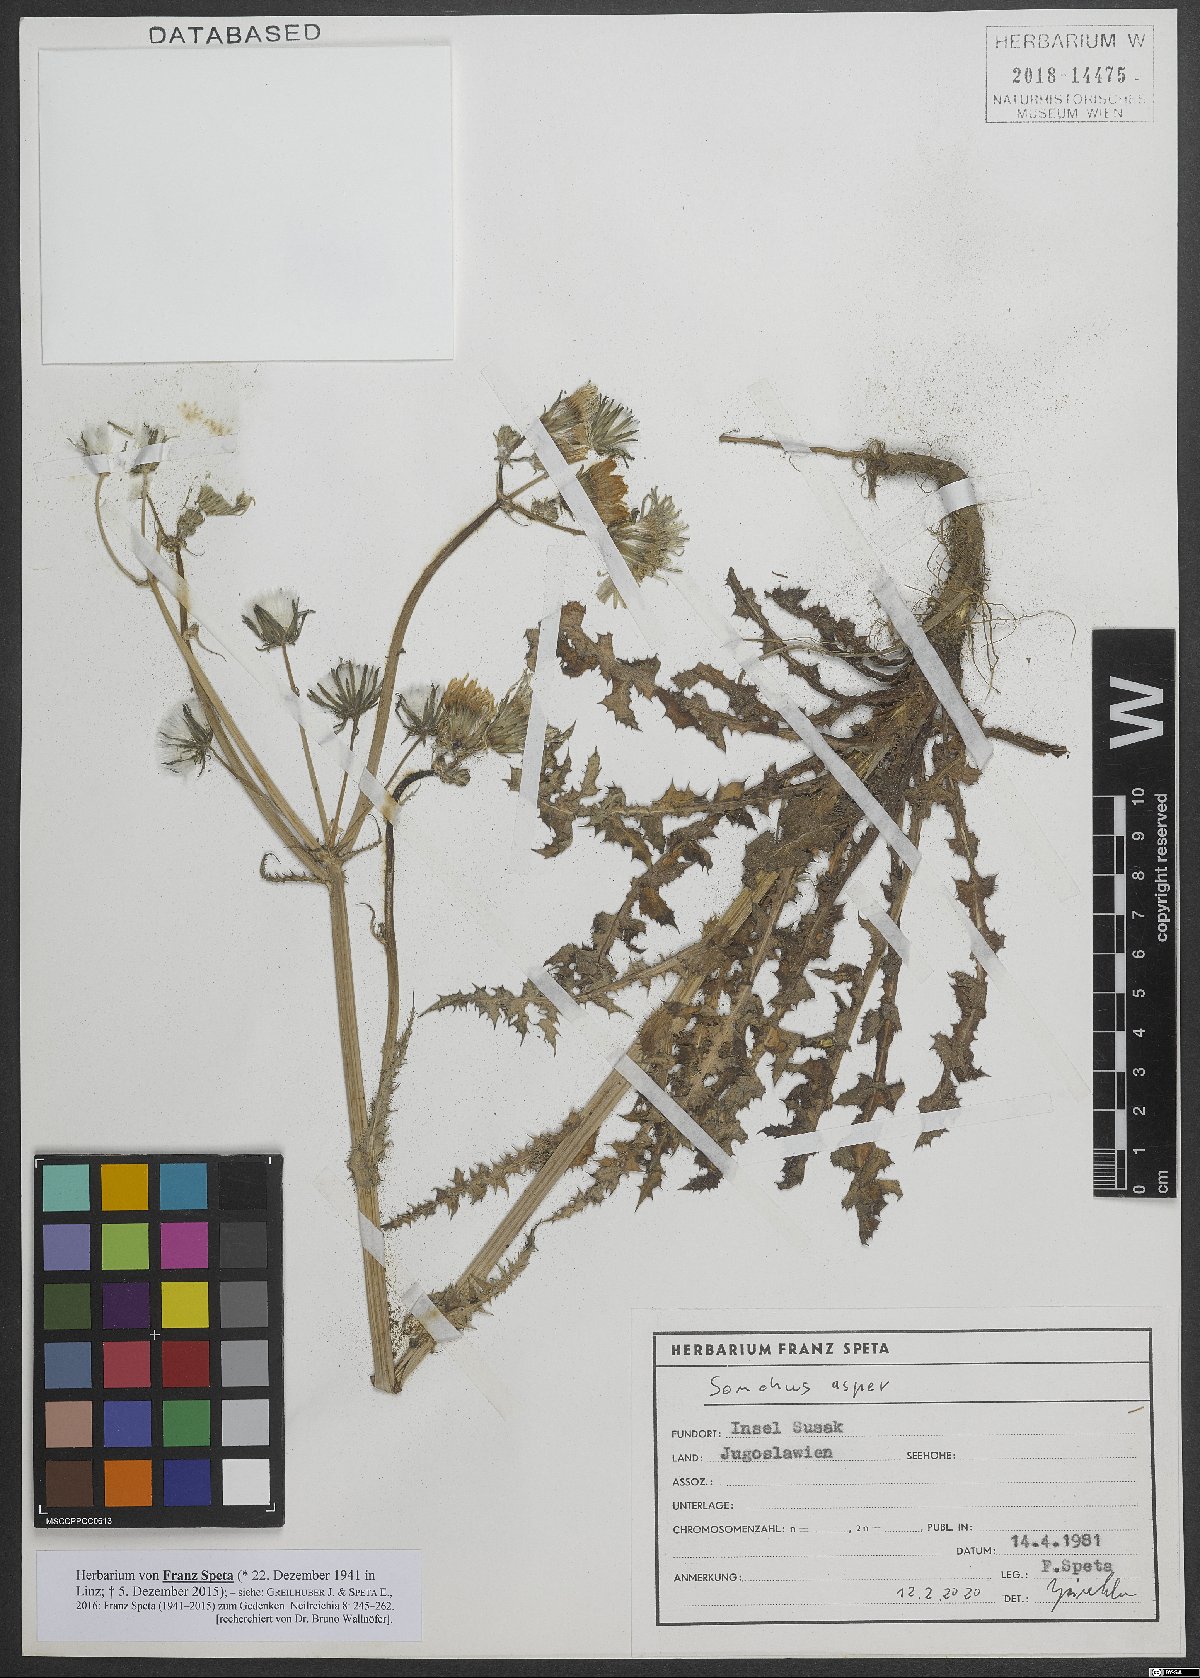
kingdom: Plantae
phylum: Tracheophyta
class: Magnoliopsida
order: Asterales
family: Asteraceae
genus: Sonchus
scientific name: Sonchus asper
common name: Prickly sow-thistle
